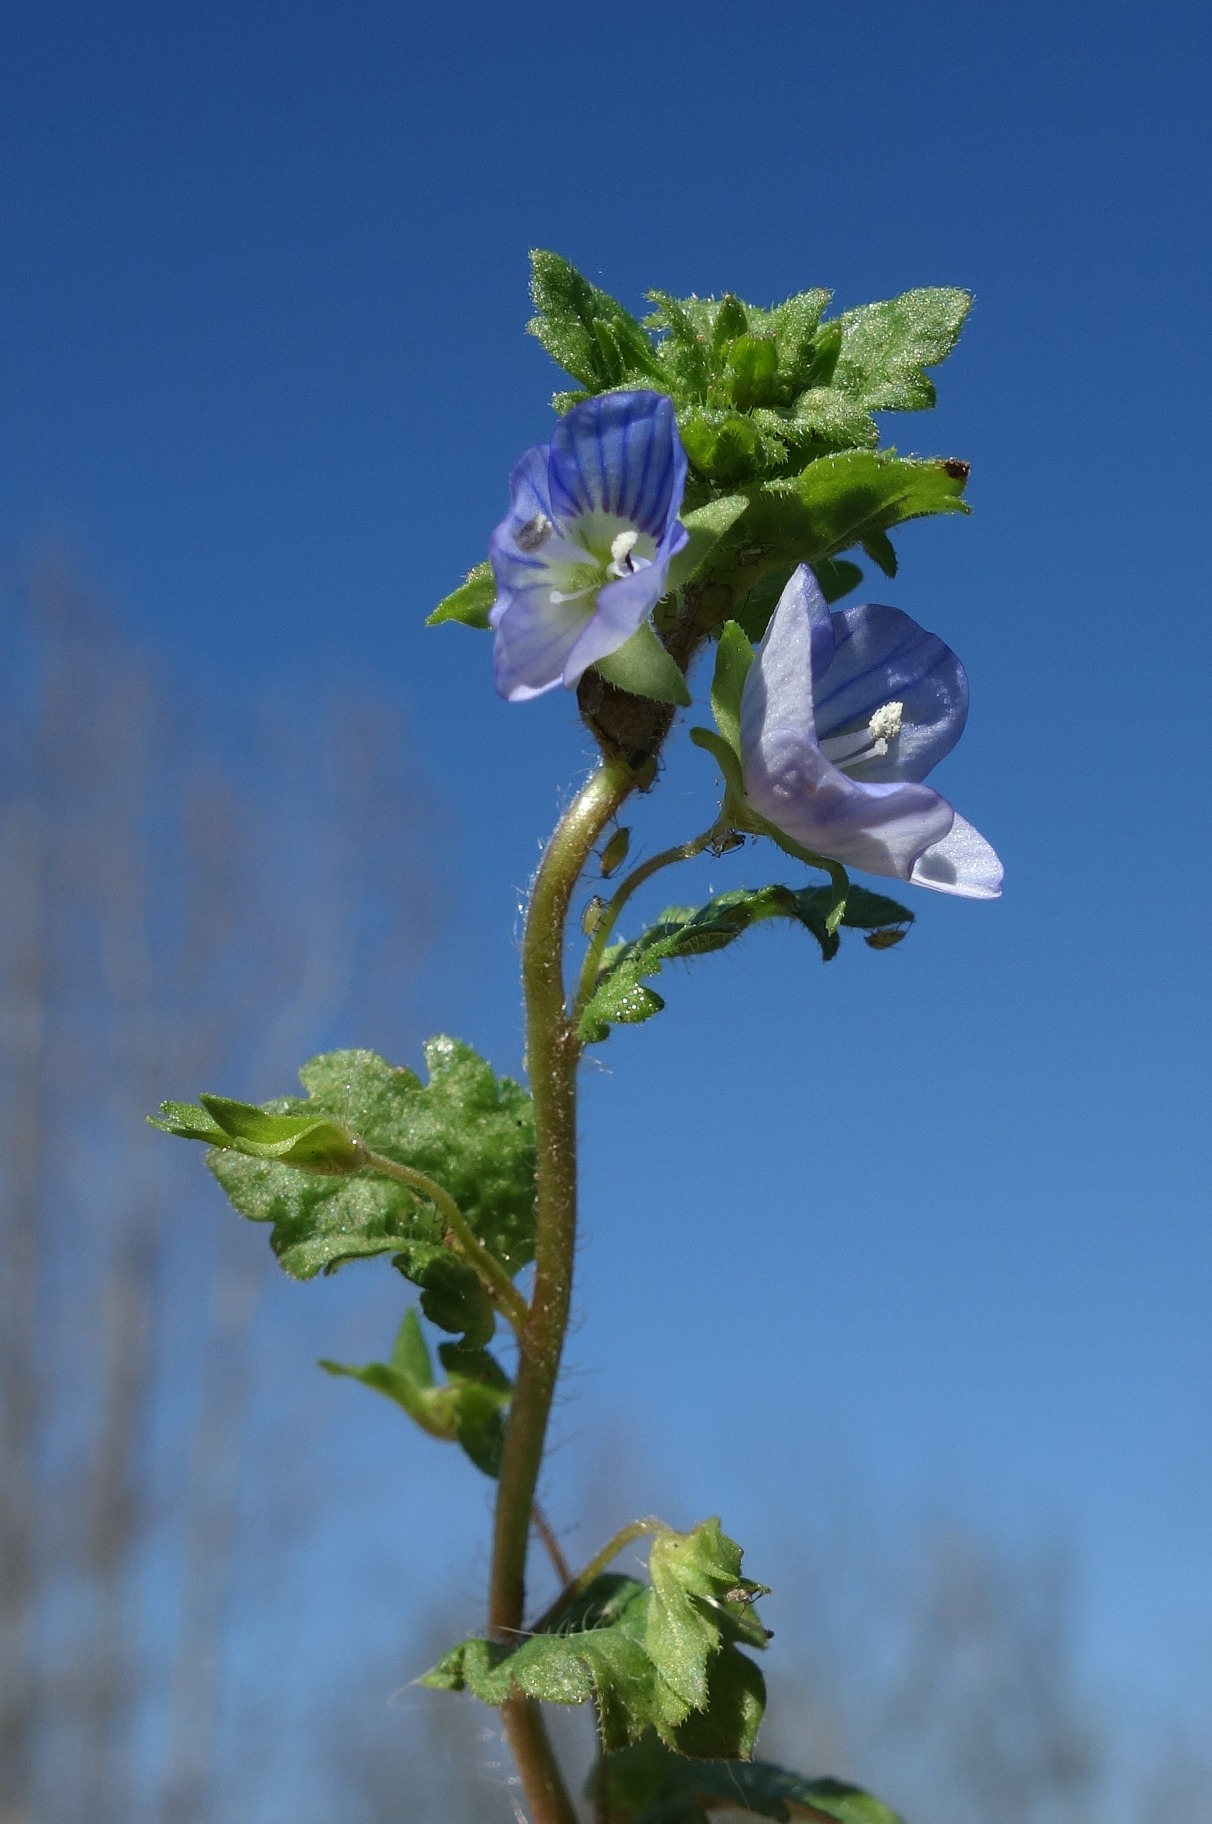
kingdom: Plantae
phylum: Tracheophyta
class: Magnoliopsida
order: Lamiales
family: Plantaginaceae
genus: Veronica
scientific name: Veronica persica
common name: Storkronet ærenpris
